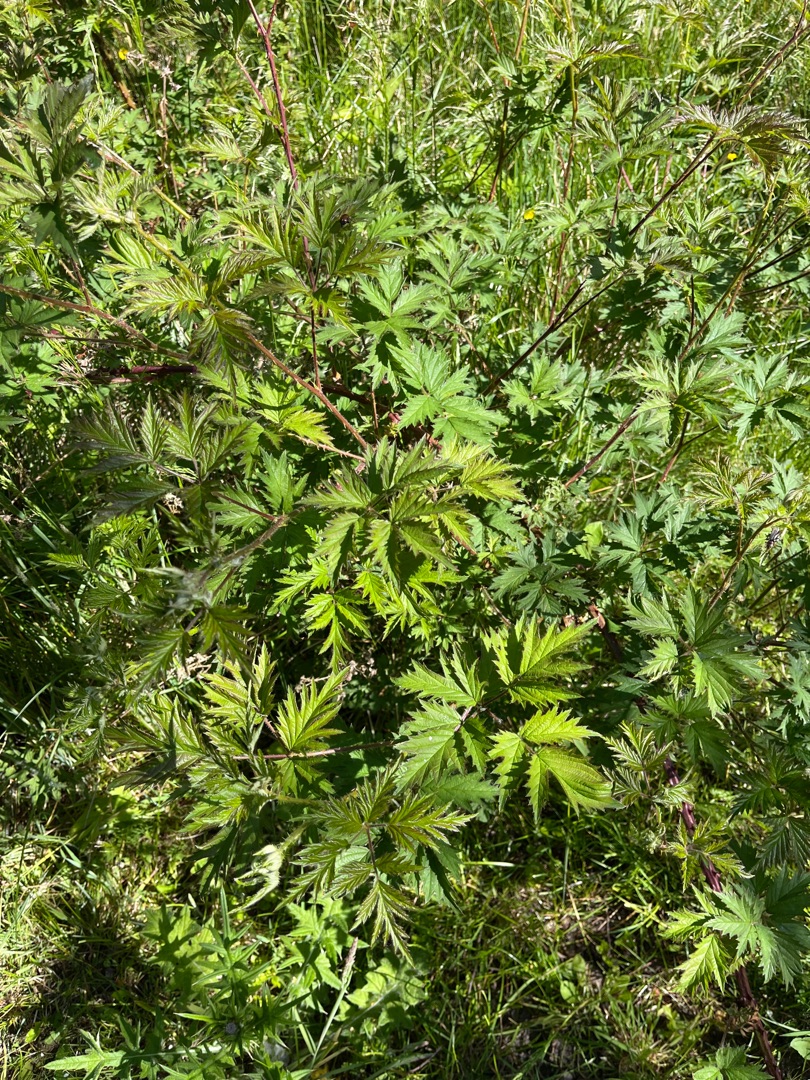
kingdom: Plantae
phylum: Tracheophyta
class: Magnoliopsida
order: Rosales
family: Rosaceae
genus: Rubus
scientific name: Rubus laciniatus
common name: Fliget brombær
